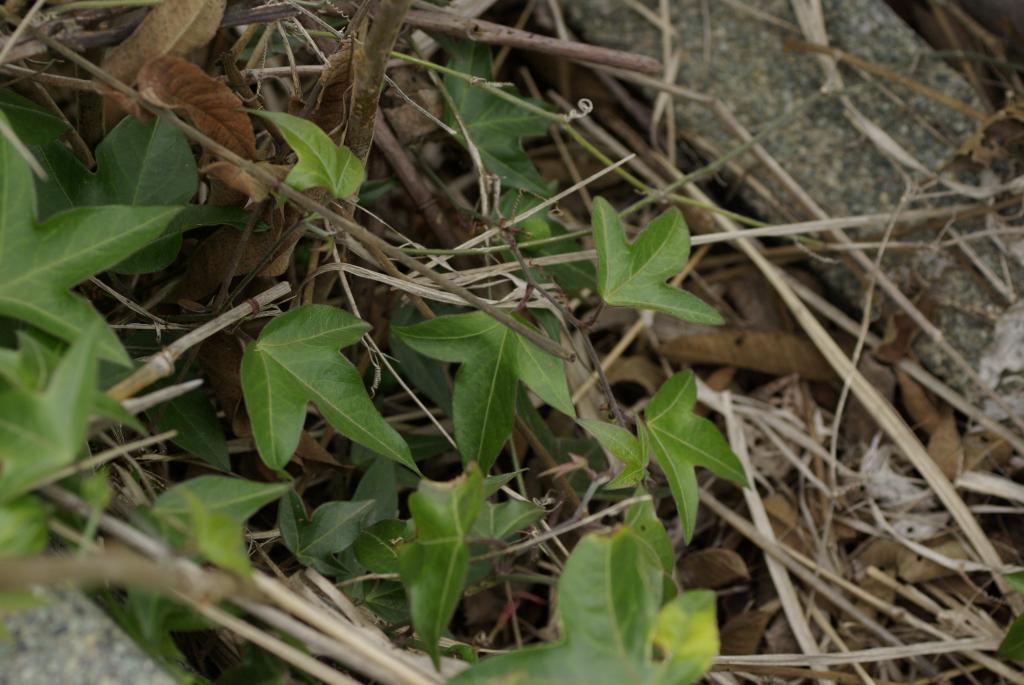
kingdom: Plantae
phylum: Tracheophyta
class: Magnoliopsida
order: Malpighiales
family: Passifloraceae
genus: Passiflora
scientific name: Passiflora suberosa
